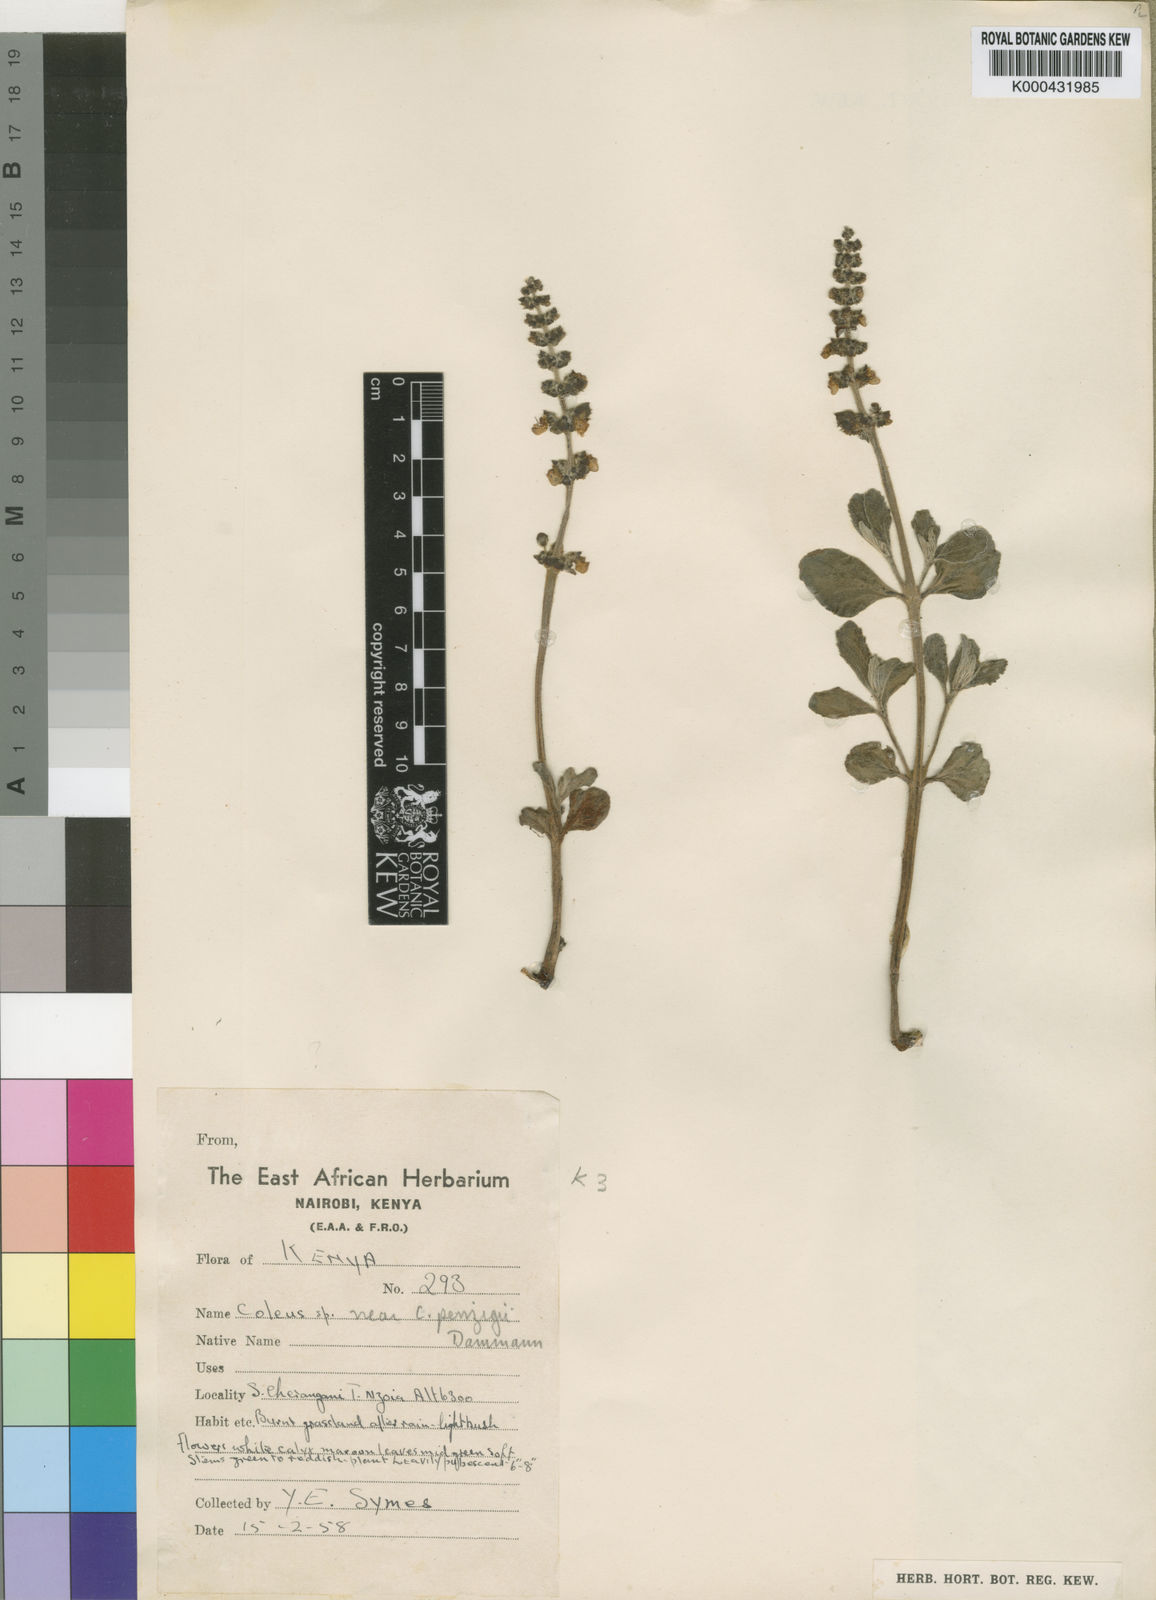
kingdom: Plantae
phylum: Tracheophyta
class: Magnoliopsida
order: Lamiales
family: Lamiaceae
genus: Coleus
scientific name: Coleus xylopodus
